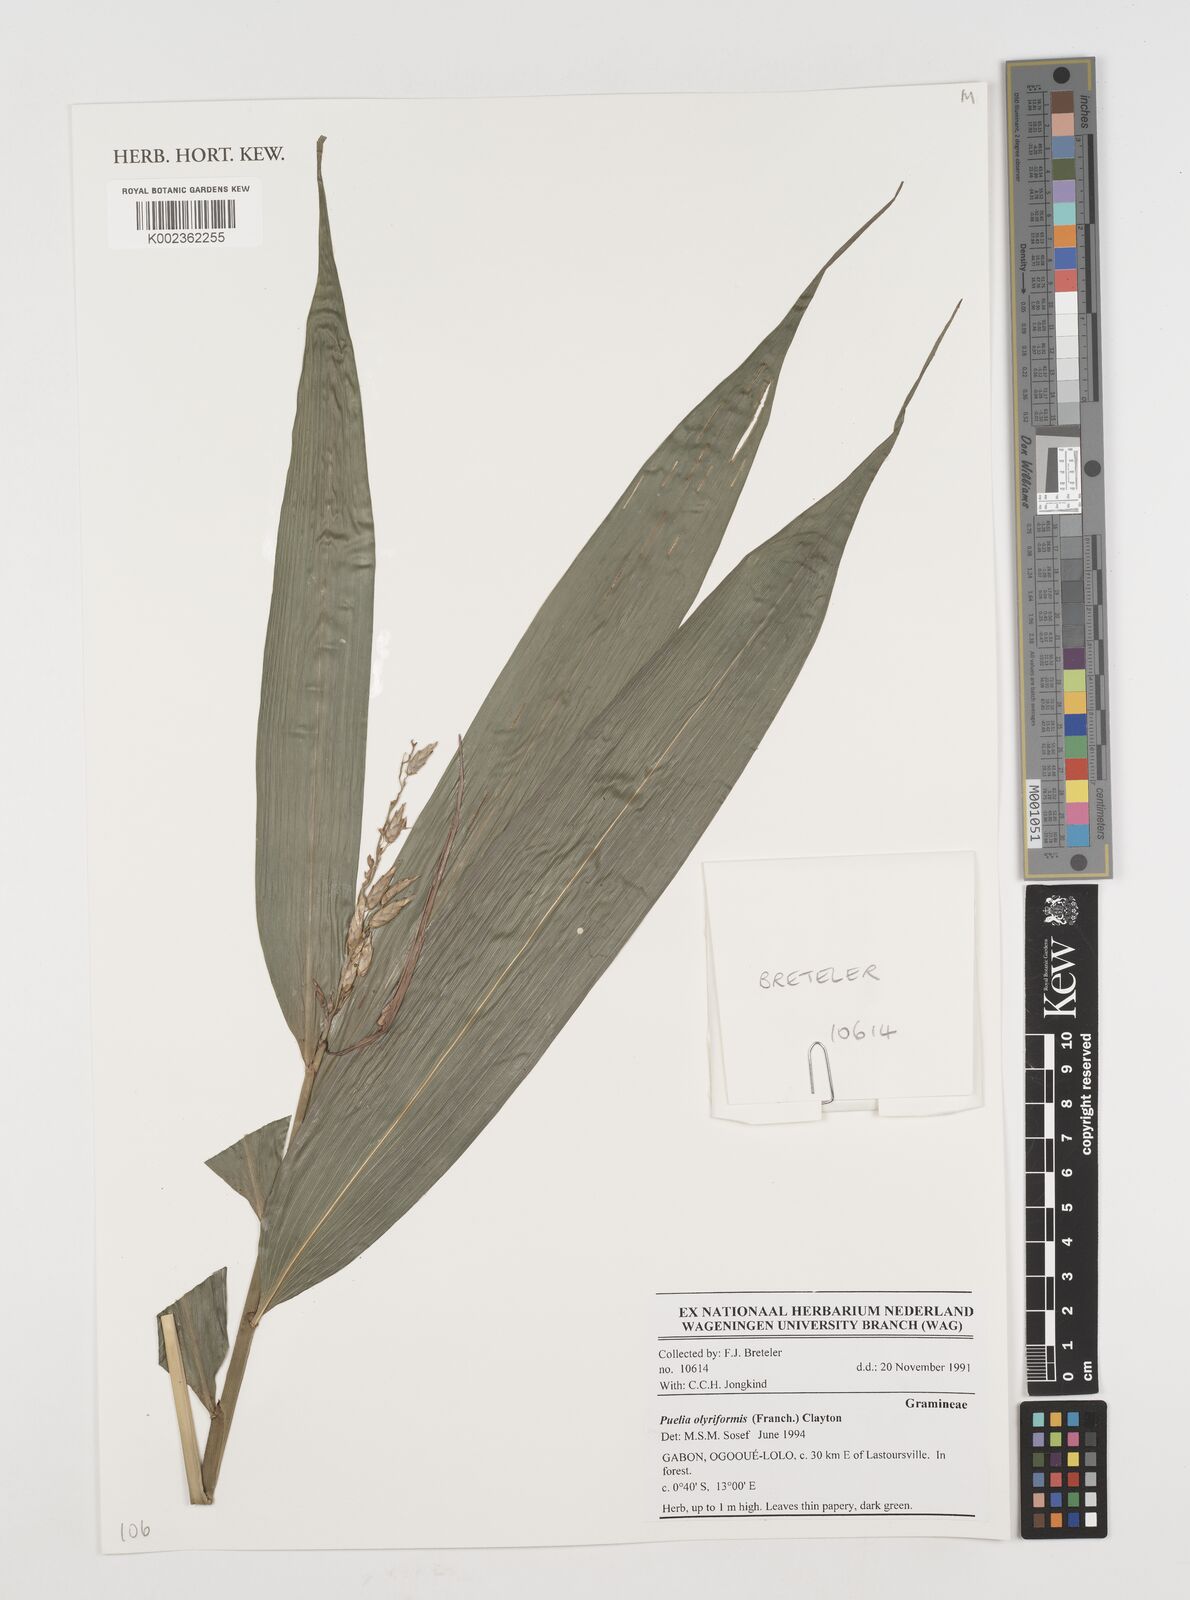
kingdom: Plantae
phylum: Tracheophyta
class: Liliopsida
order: Poales
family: Poaceae
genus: Puelia
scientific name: Puelia olyriformis
